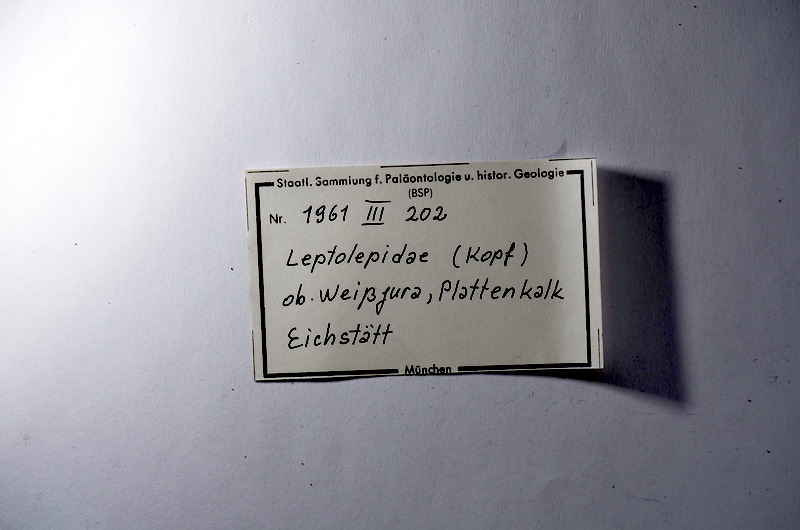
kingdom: Animalia
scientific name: Animalia
